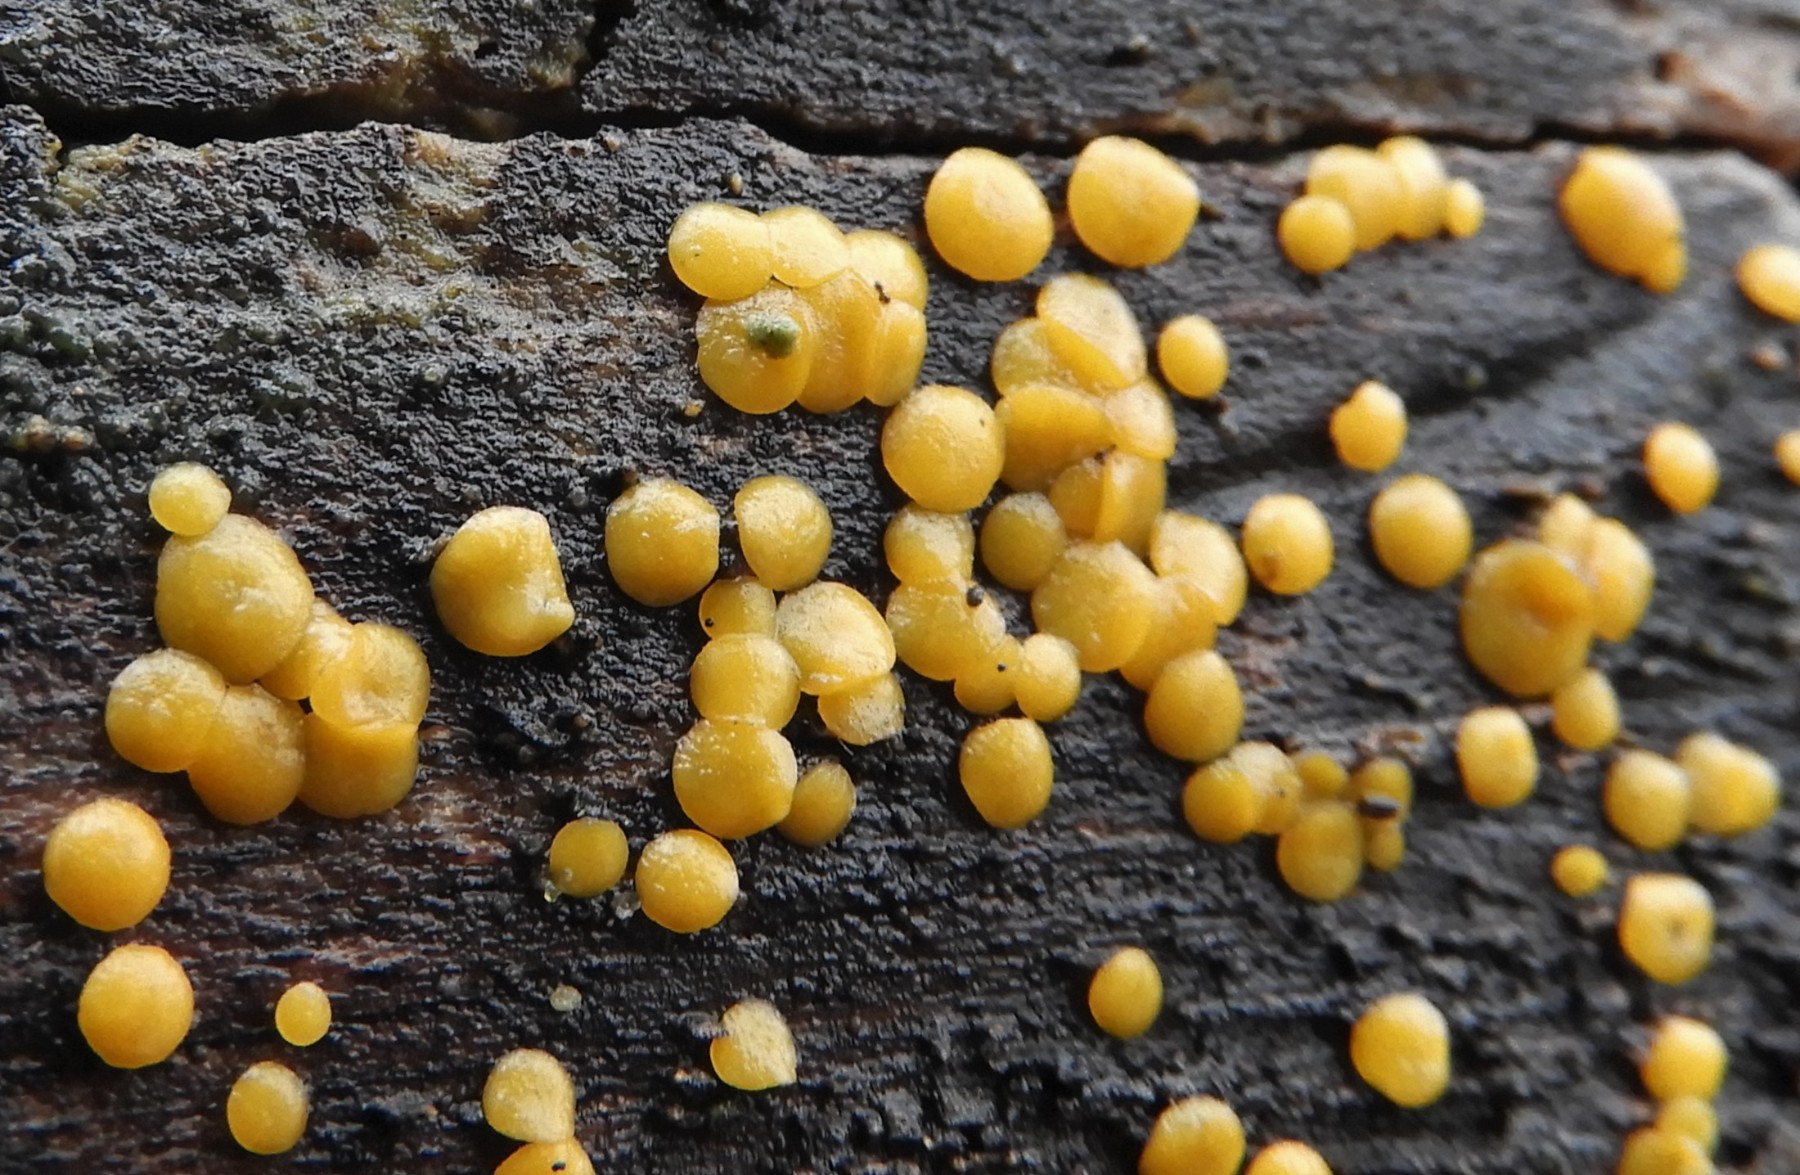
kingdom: Fungi
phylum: Ascomycota
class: Leotiomycetes
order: Helotiales
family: Pezizellaceae
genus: Calycina
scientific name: Calycina citrina
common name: almindelig gulskive
